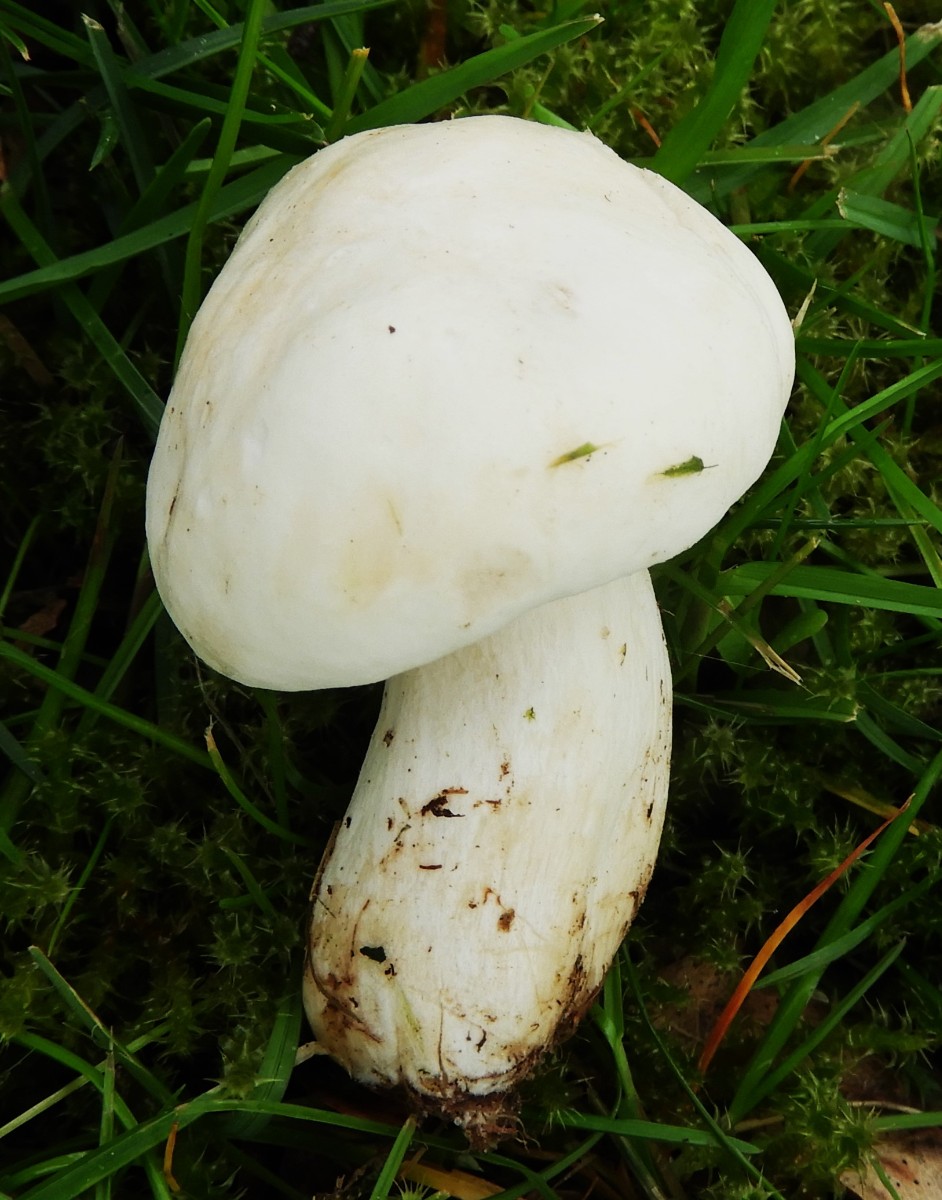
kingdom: Fungi
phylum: Basidiomycota
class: Agaricomycetes
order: Agaricales
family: Lyophyllaceae
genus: Calocybe
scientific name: Calocybe gambosa
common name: vårmusseron
